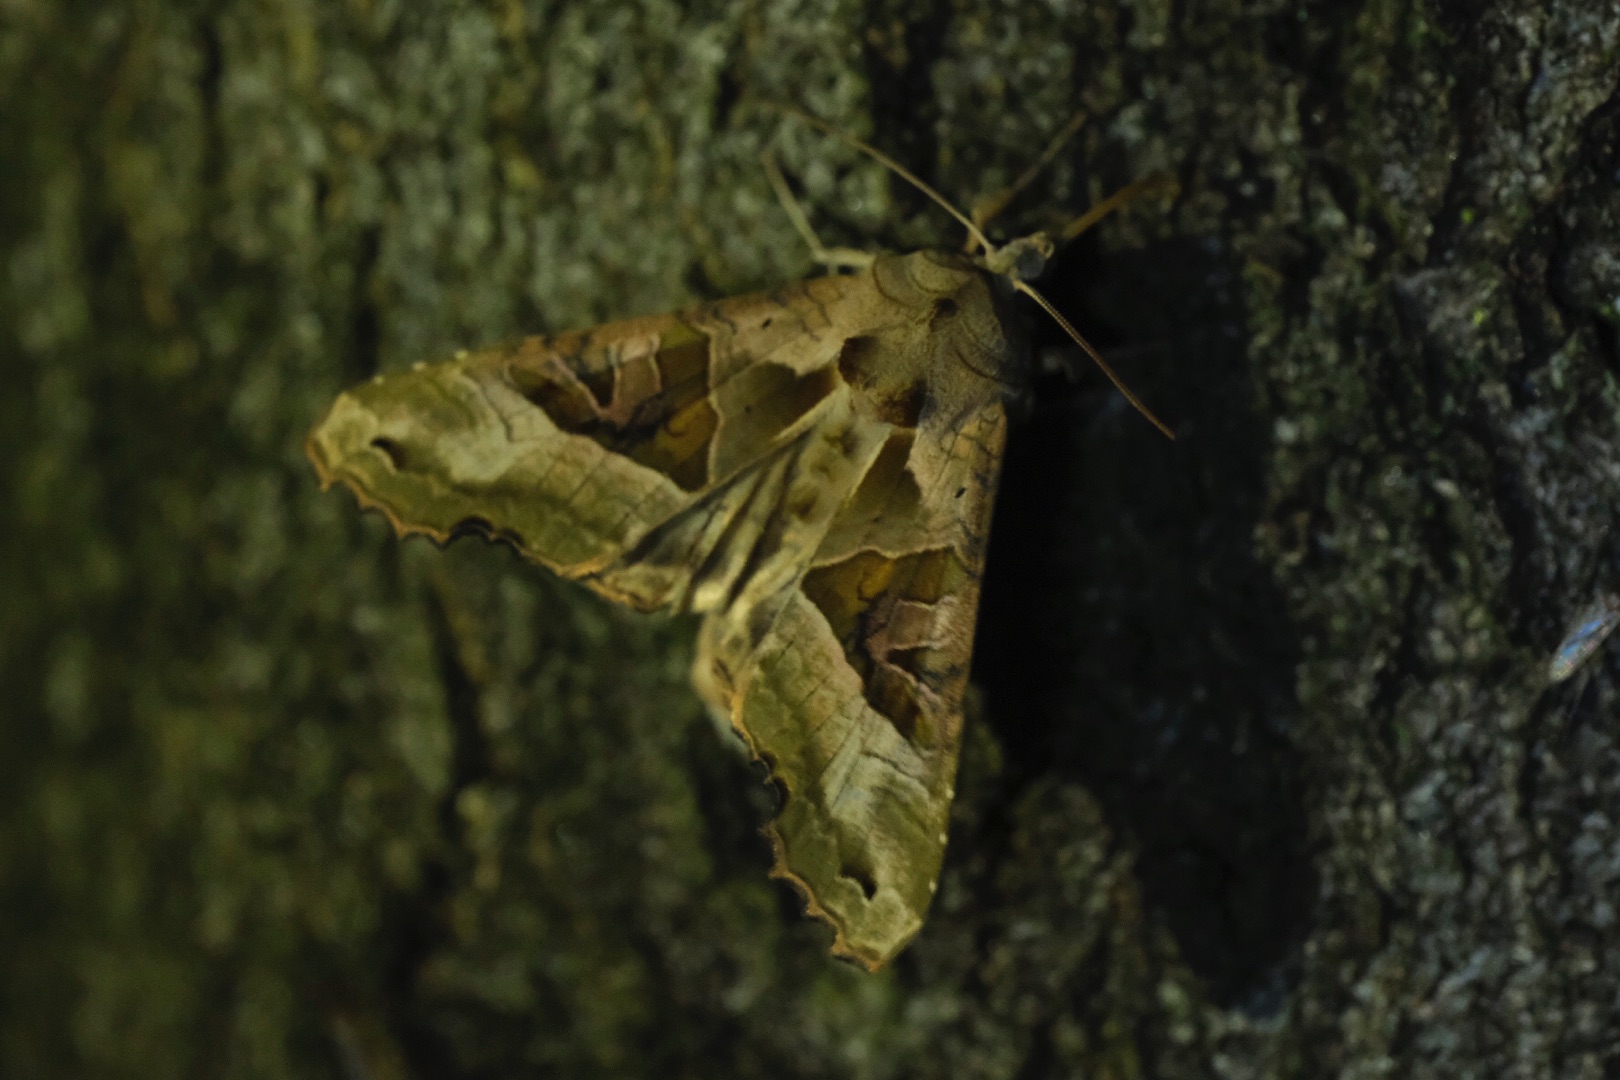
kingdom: Animalia
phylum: Arthropoda
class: Insecta
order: Lepidoptera
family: Noctuidae
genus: Phlogophora
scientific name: Phlogophora meticulosa
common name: Agatugle
